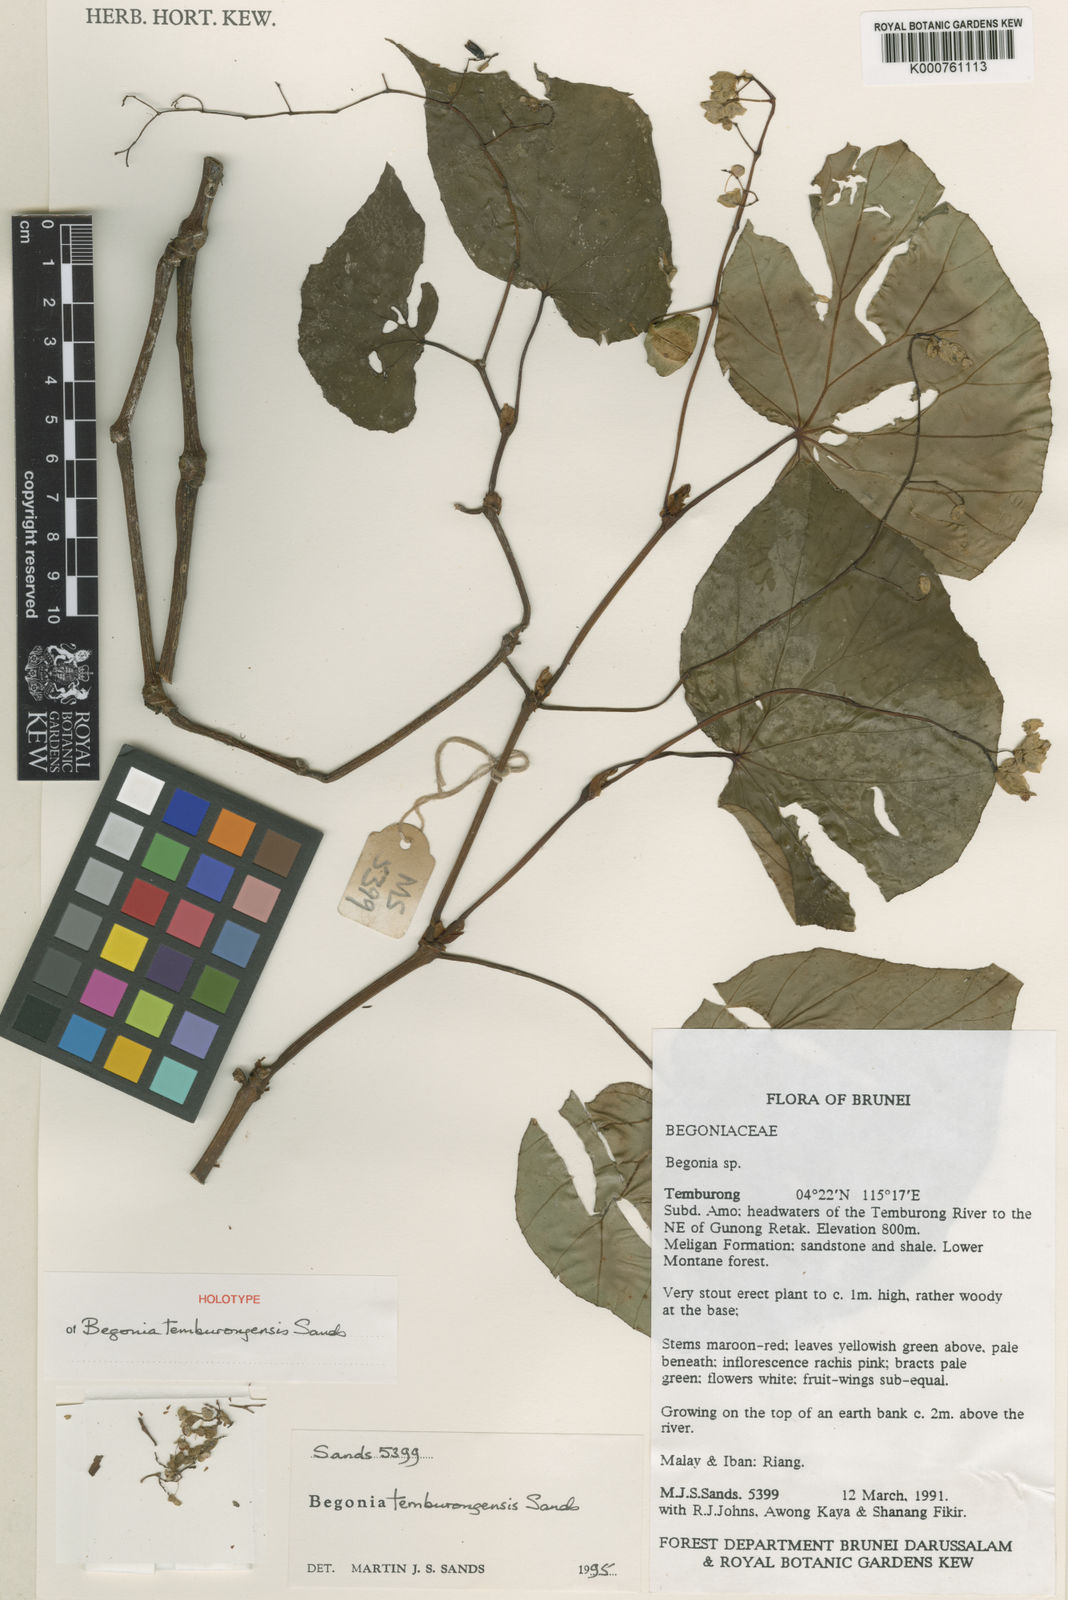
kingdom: Plantae
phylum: Tracheophyta
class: Magnoliopsida
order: Cucurbitales
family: Begoniaceae
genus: Begonia
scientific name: Begonia temburongensis
